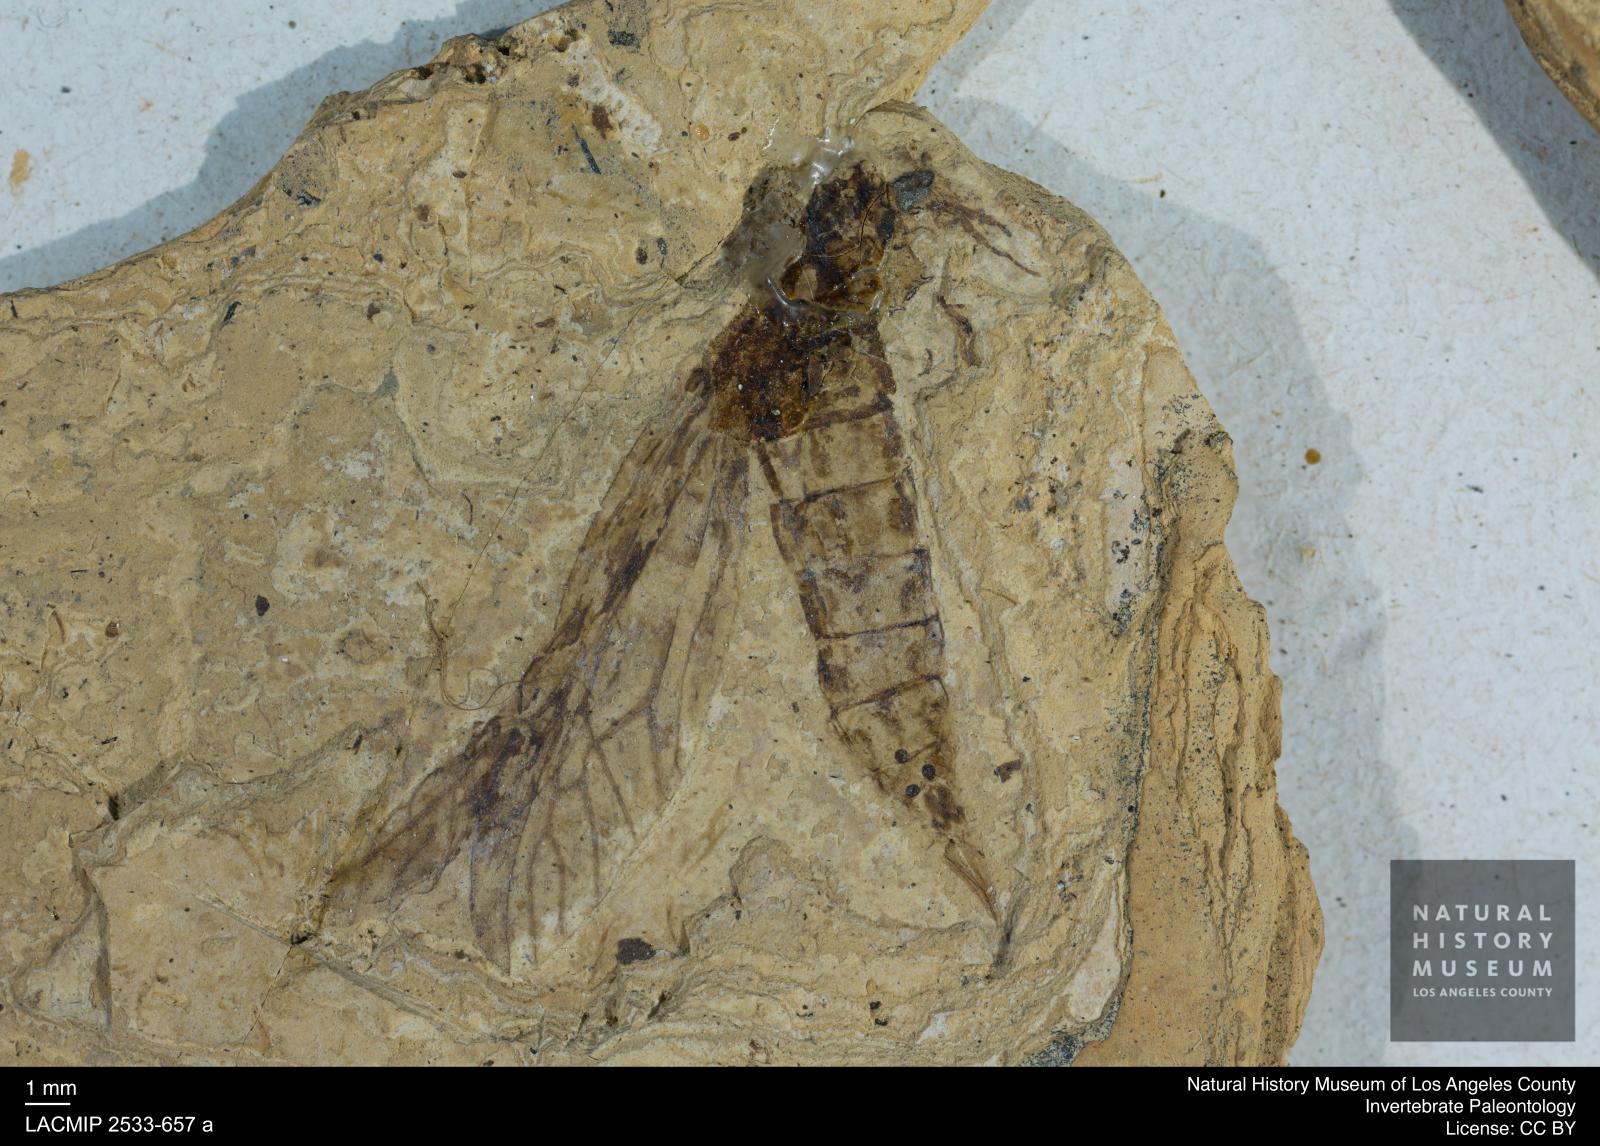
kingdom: Animalia
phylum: Arthropoda
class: Insecta
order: Diptera
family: Tipulidae
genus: Tipula
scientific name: Tipula oligocenica
